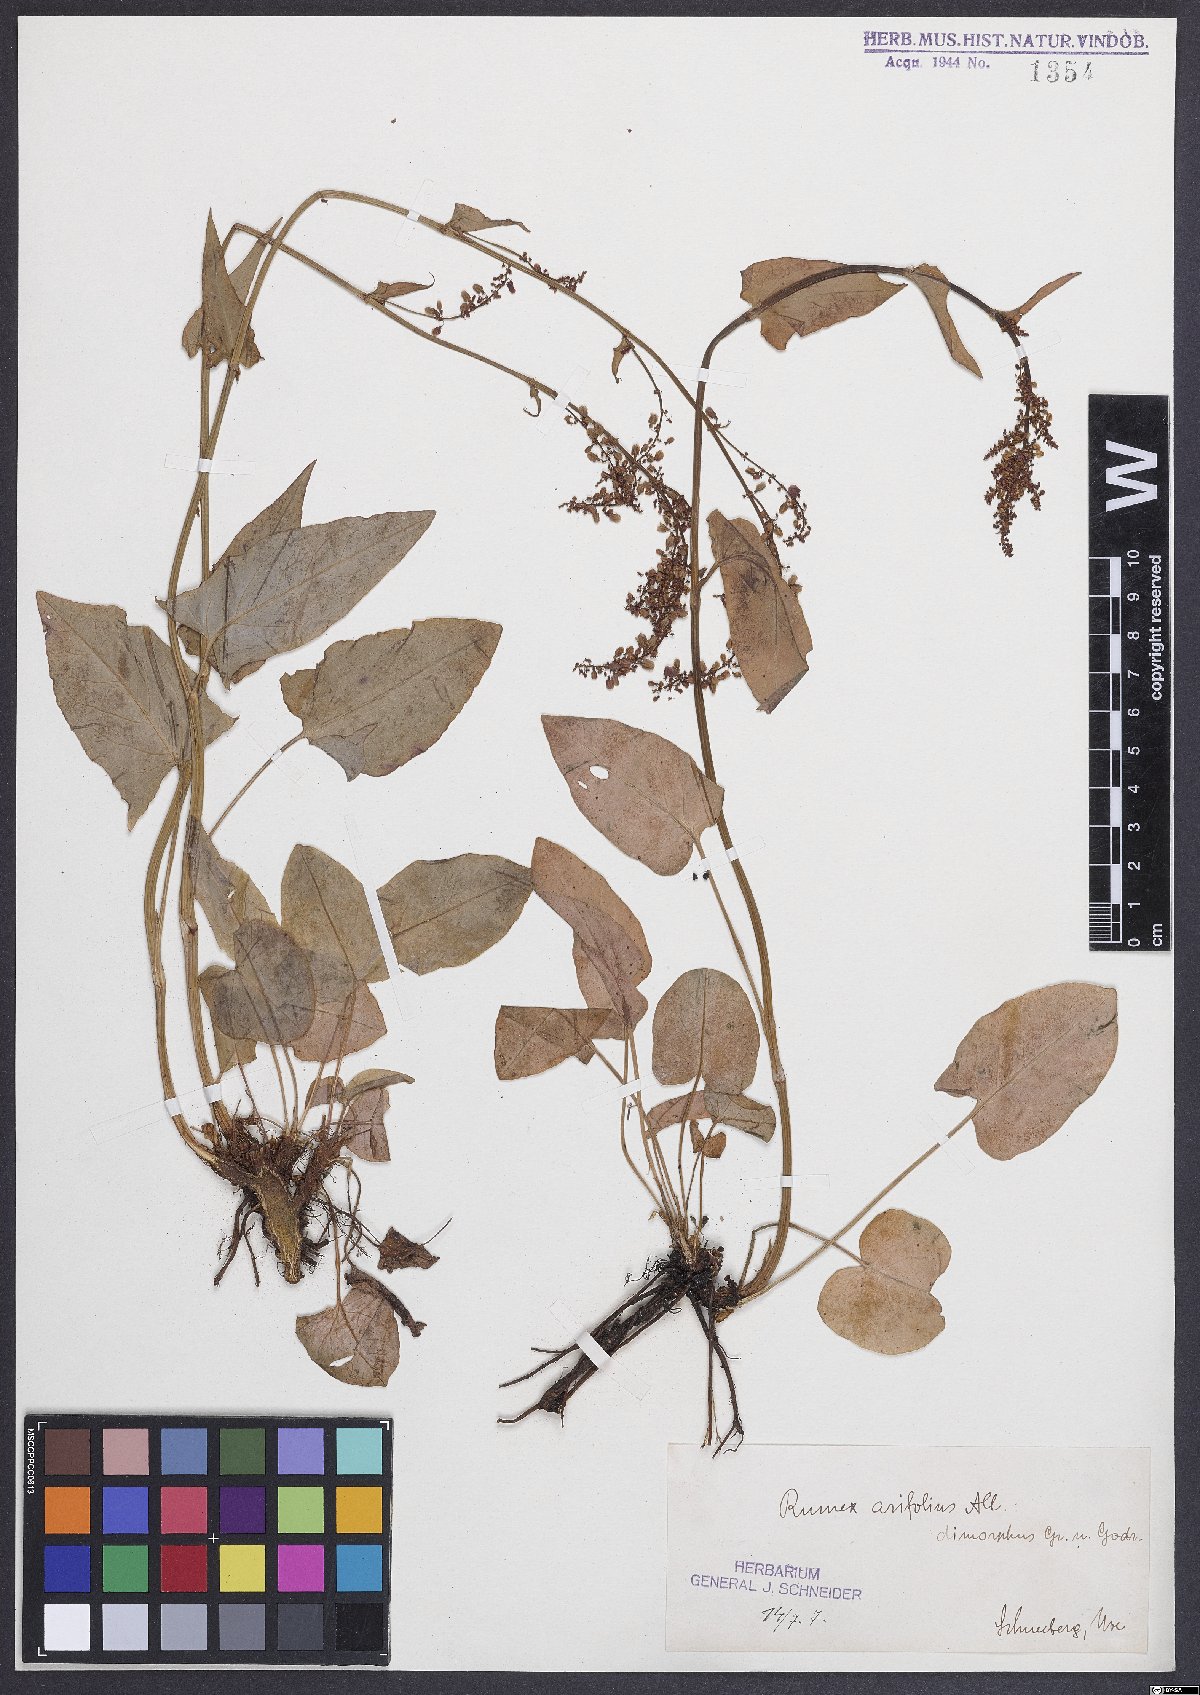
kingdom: Plantae
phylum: Tracheophyta
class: Magnoliopsida
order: Caryophyllales
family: Polygonaceae
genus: Rumex
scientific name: Rumex arifolius
